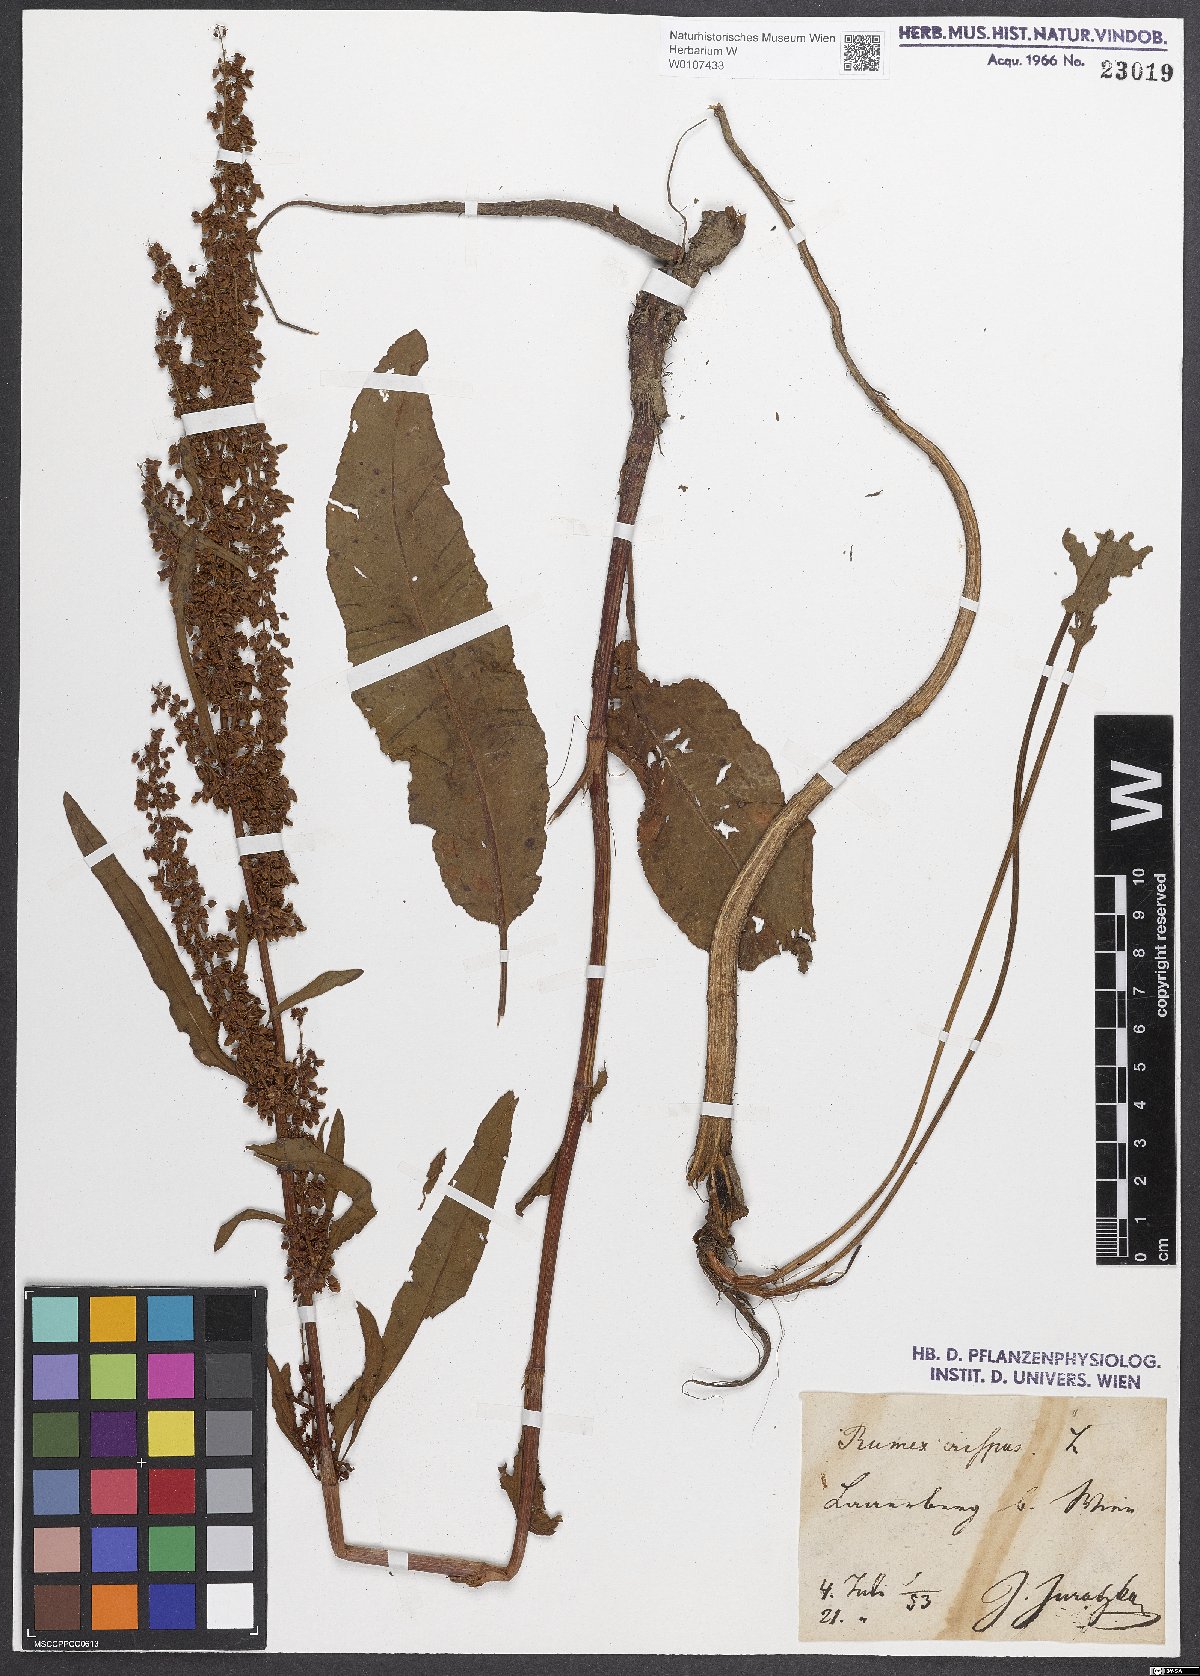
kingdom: Plantae
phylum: Tracheophyta
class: Magnoliopsida
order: Caryophyllales
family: Polygonaceae
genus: Rumex
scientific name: Rumex crispus
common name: Curled dock
